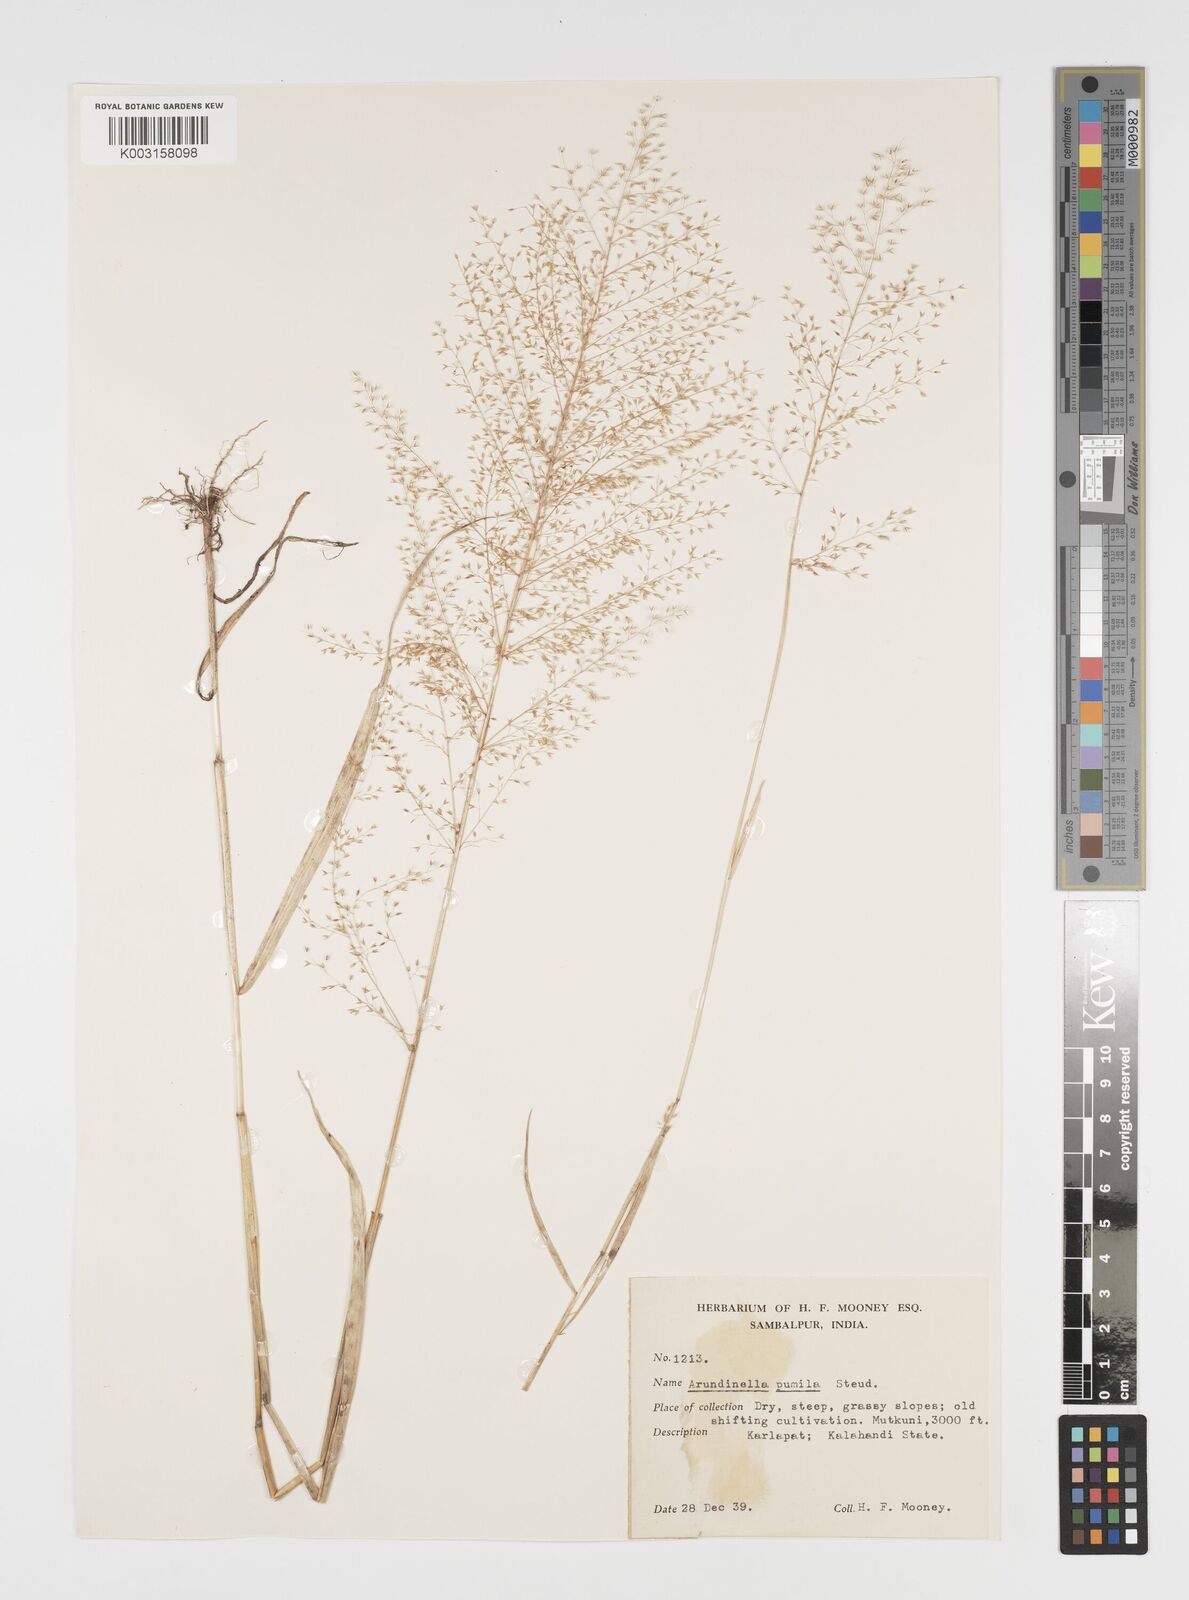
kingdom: Plantae
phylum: Tracheophyta
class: Liliopsida
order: Poales
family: Poaceae
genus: Arundinella
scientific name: Arundinella pumila
